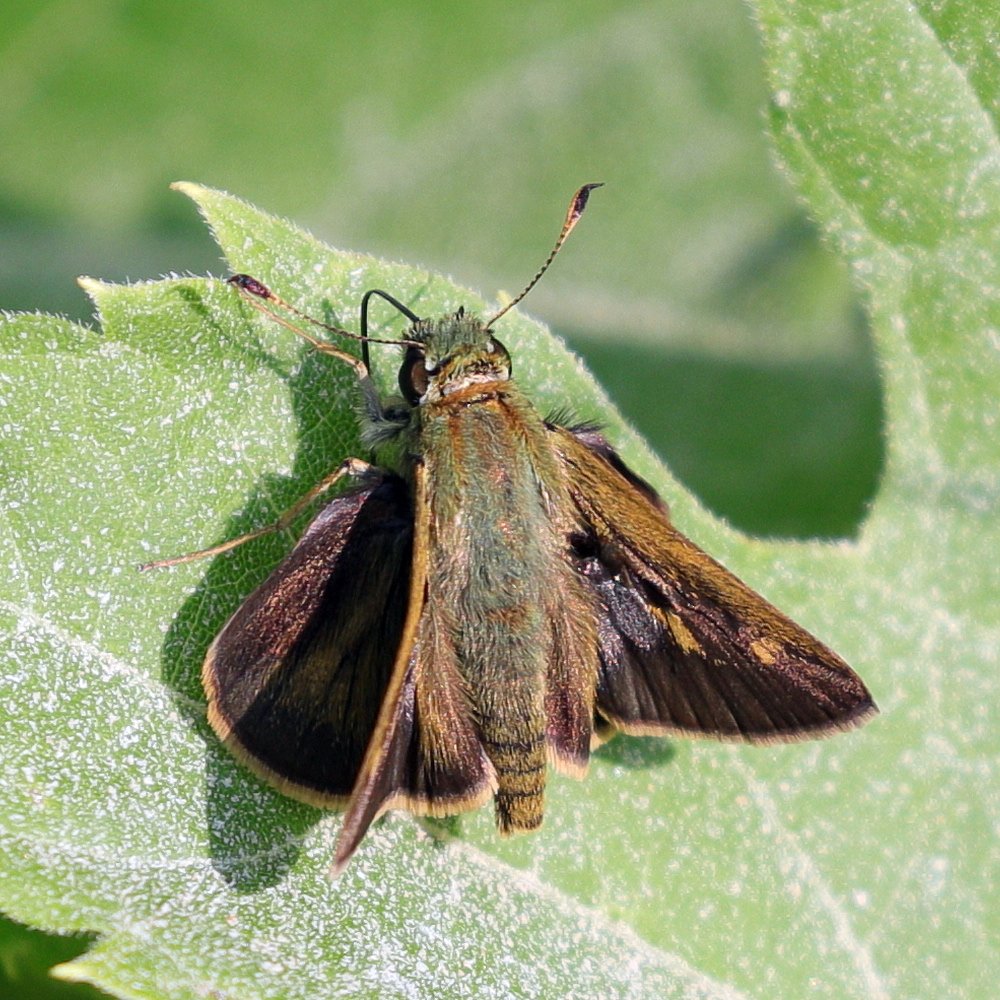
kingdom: Animalia
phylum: Arthropoda
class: Insecta
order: Lepidoptera
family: Hesperiidae
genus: Polites
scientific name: Polites egeremet
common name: Northern Broken-Dash
